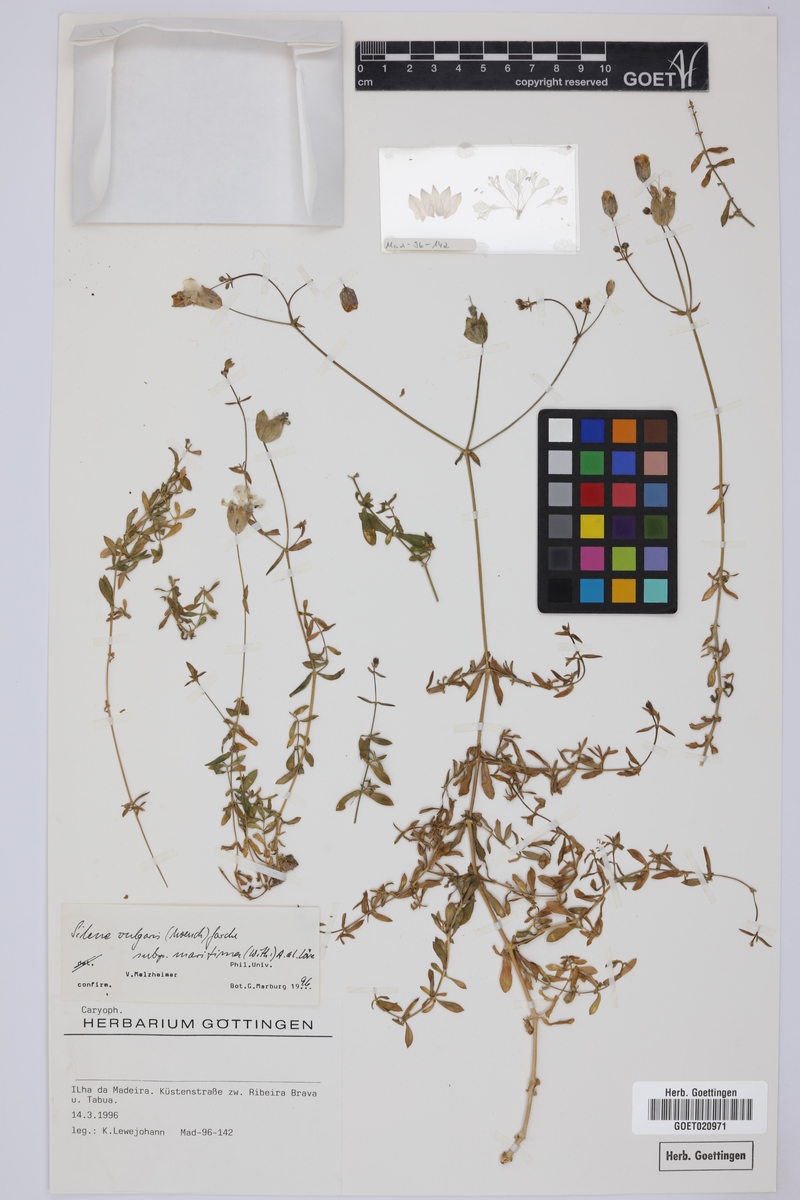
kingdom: Plantae
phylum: Tracheophyta
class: Magnoliopsida
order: Caryophyllales
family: Caryophyllaceae
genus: Silene
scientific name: Silene uniflora
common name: Sea campion
